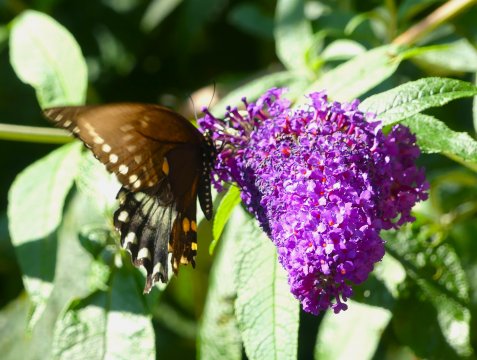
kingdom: Animalia
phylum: Arthropoda
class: Insecta
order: Lepidoptera
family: Papilionidae
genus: Pterourus
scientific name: Pterourus troilus
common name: Spicebush Swallowtail
